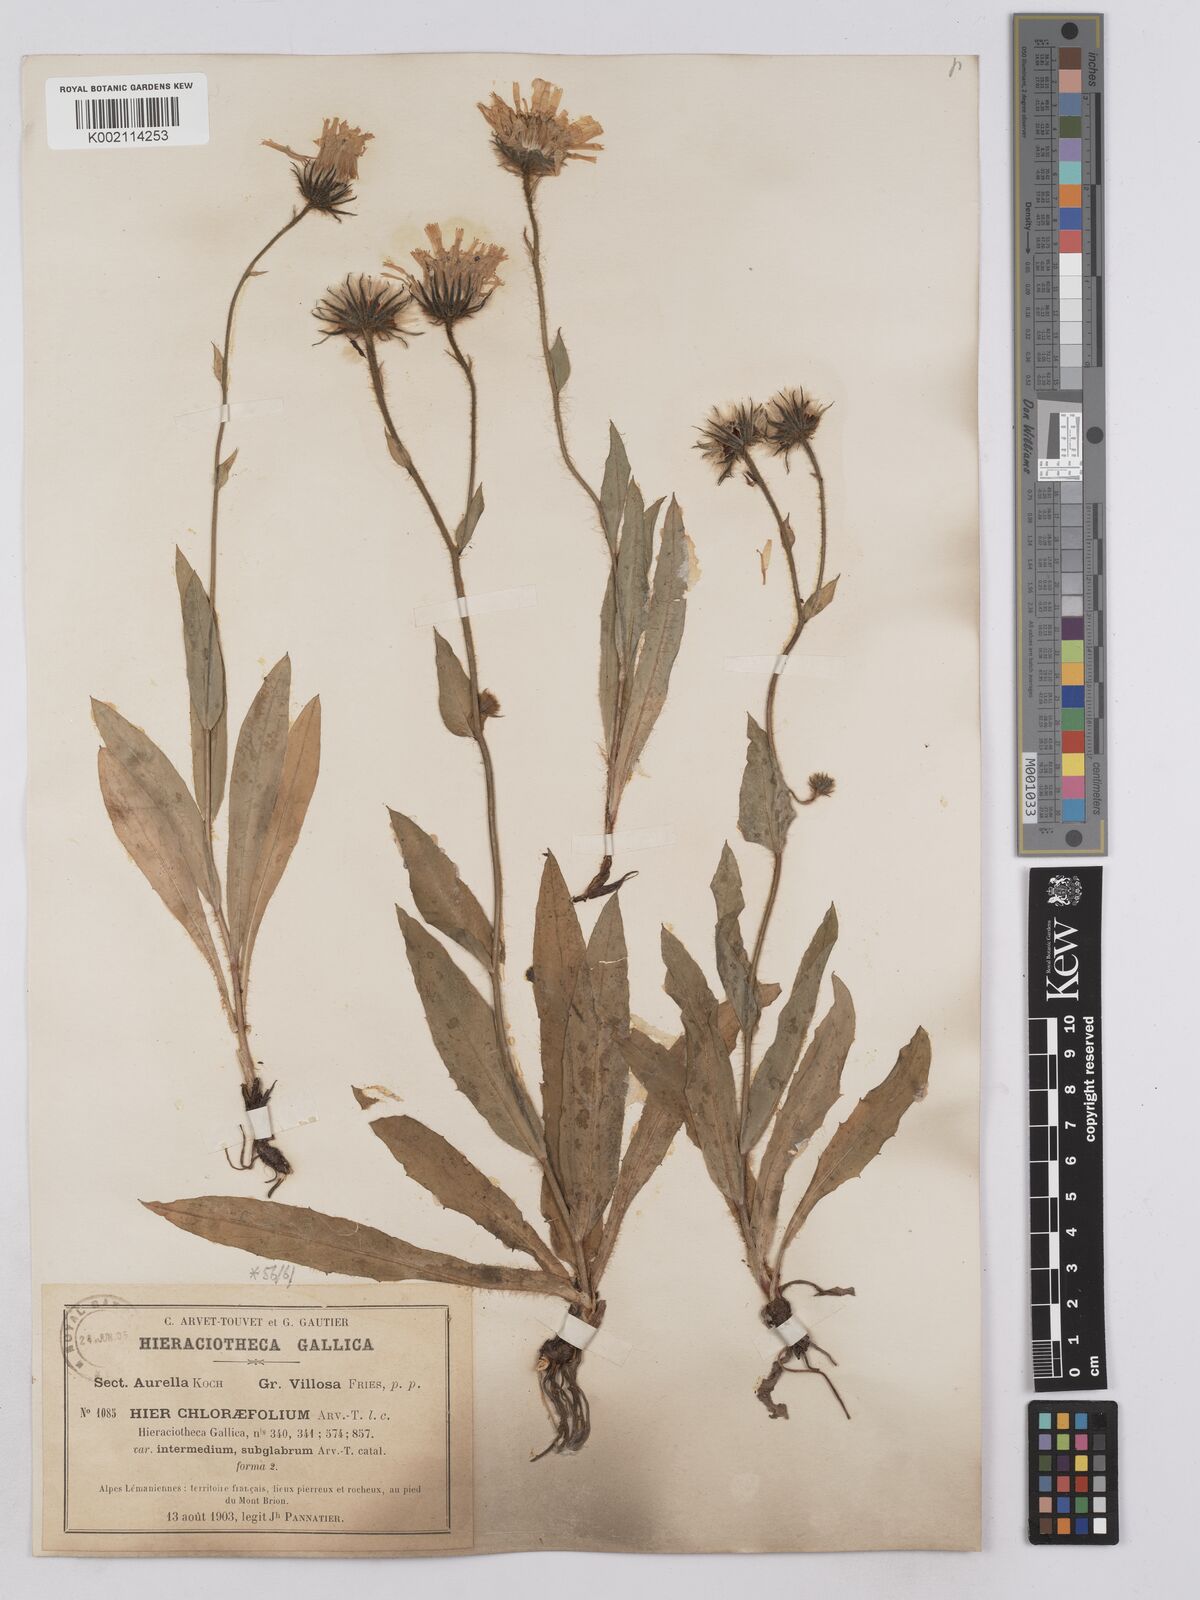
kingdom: Plantae
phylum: Tracheophyta
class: Magnoliopsida
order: Asterales
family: Asteraceae
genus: Hieracium
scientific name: Hieracium chlorifolium
